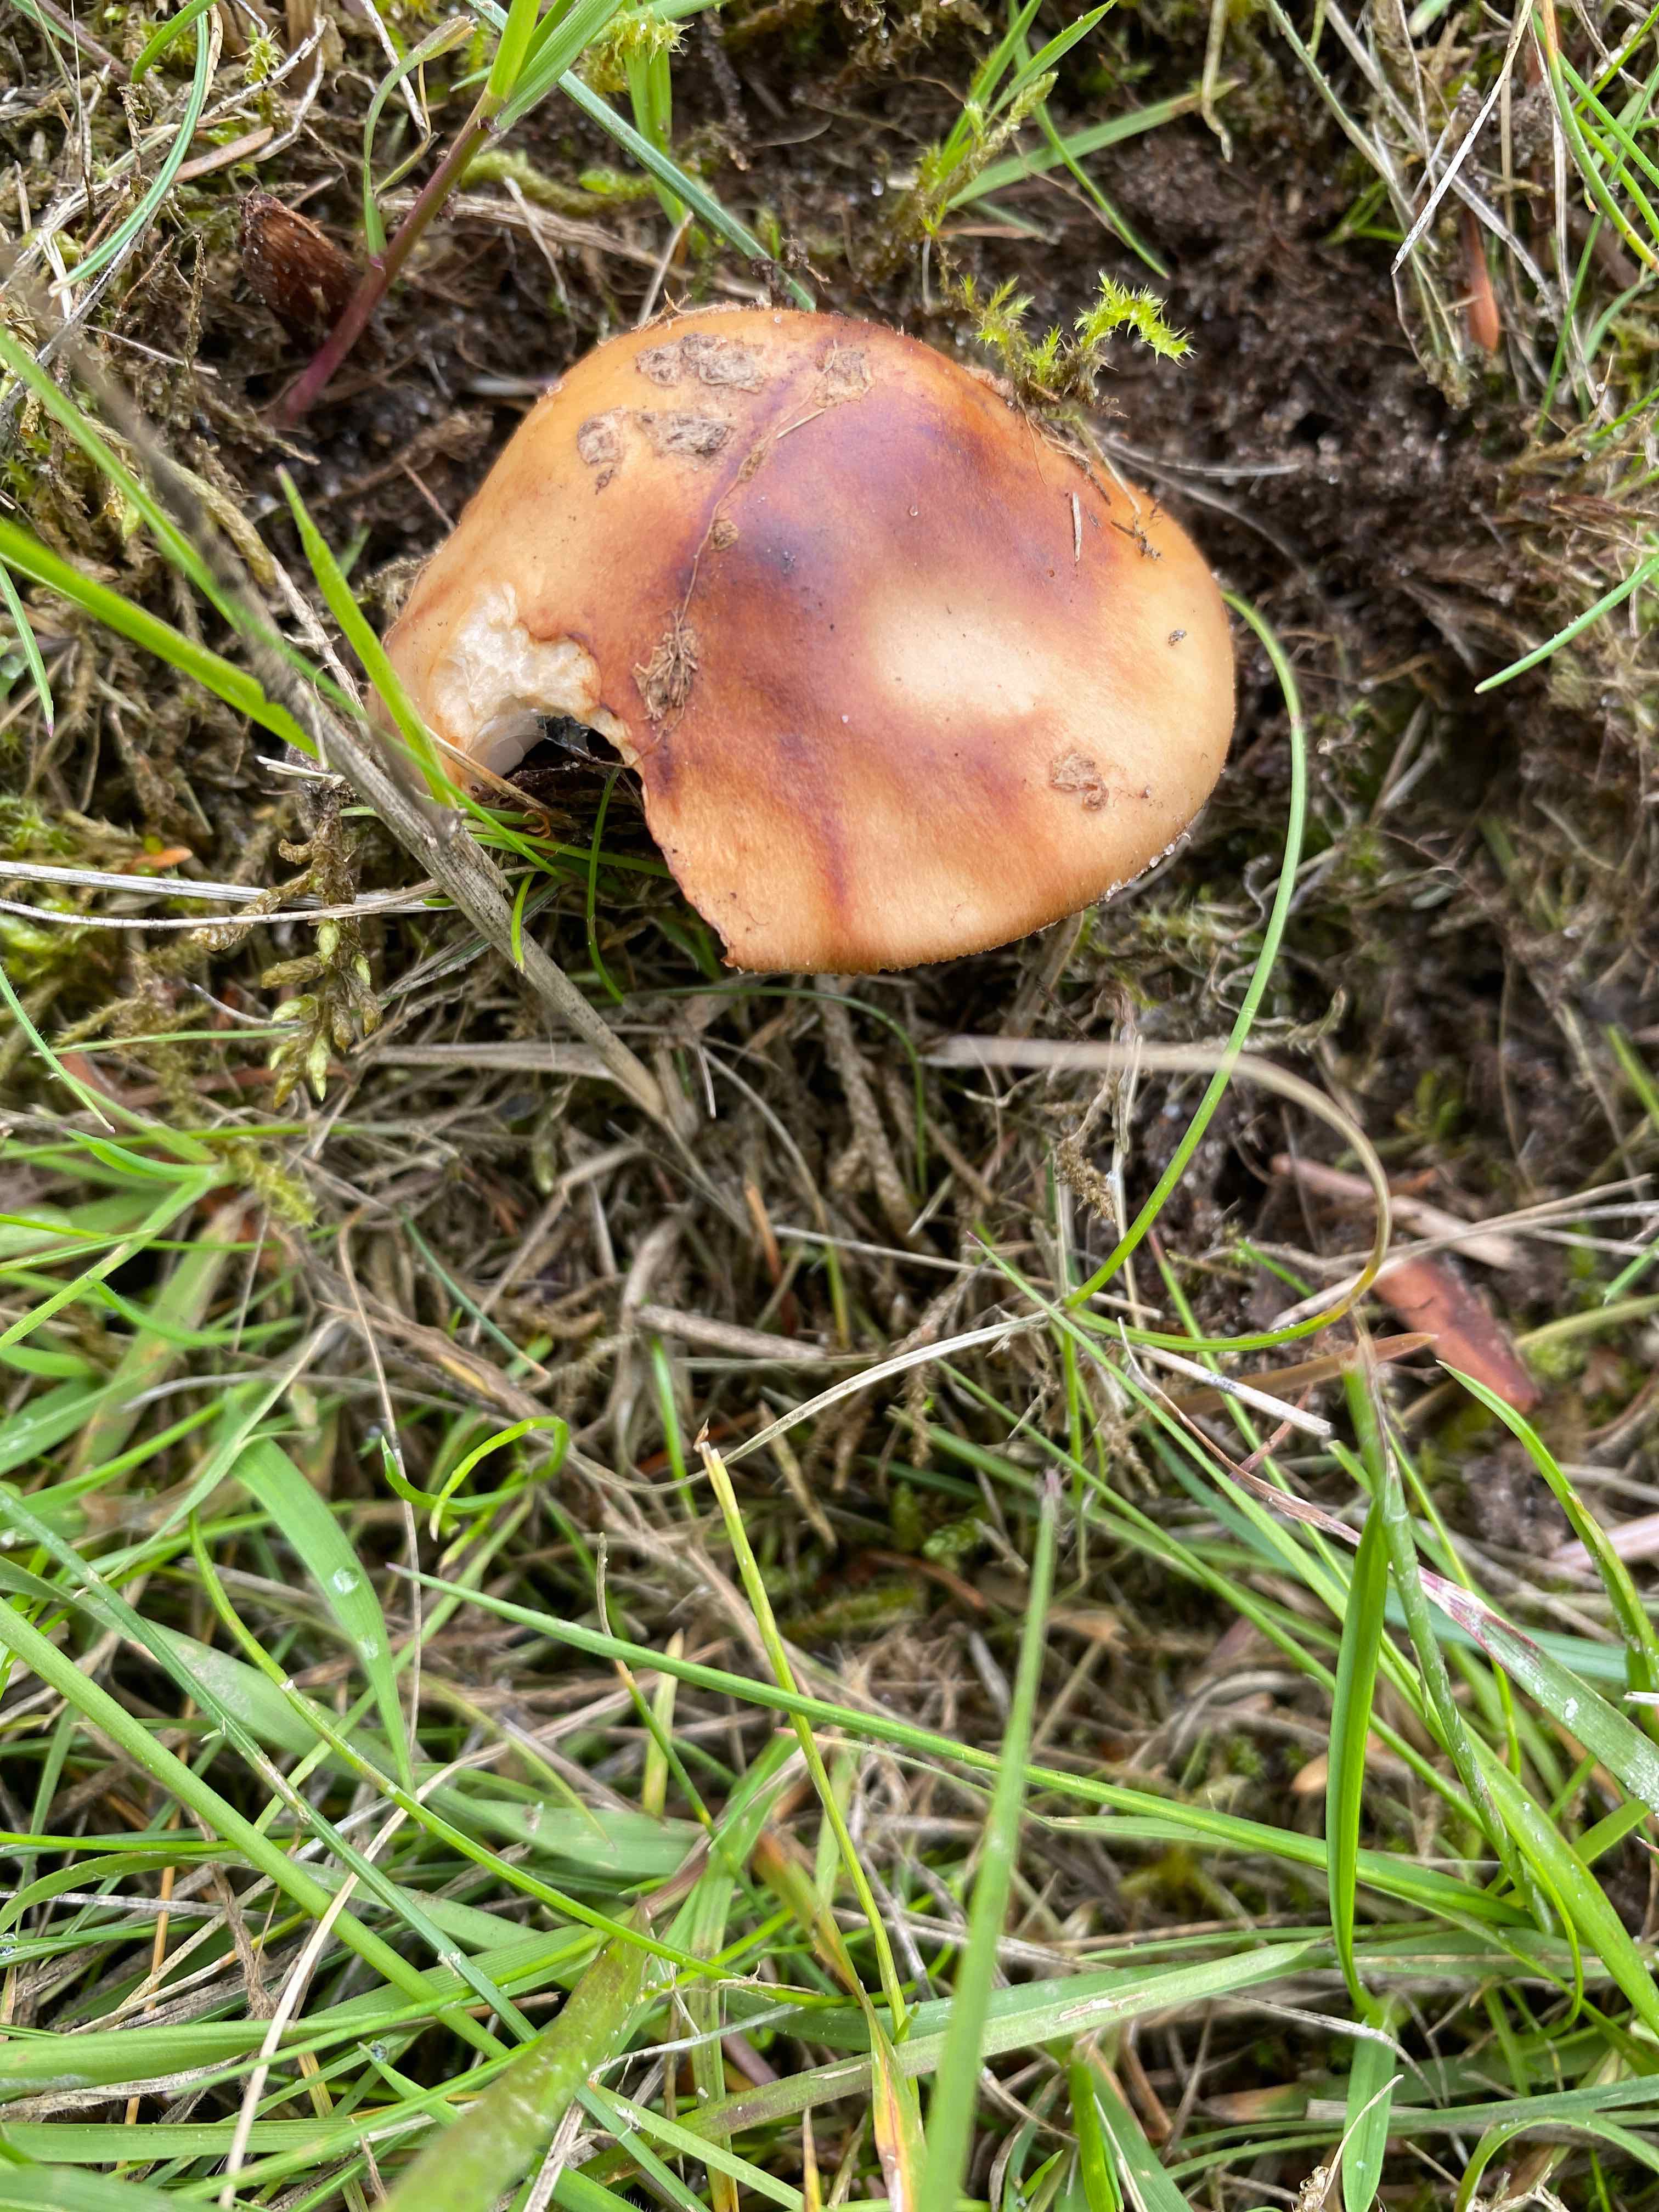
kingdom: Fungi
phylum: Basidiomycota
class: Agaricomycetes
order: Agaricales
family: Amanitaceae
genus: Amanita
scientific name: Amanita rubescens
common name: rødmende fluesvamp
